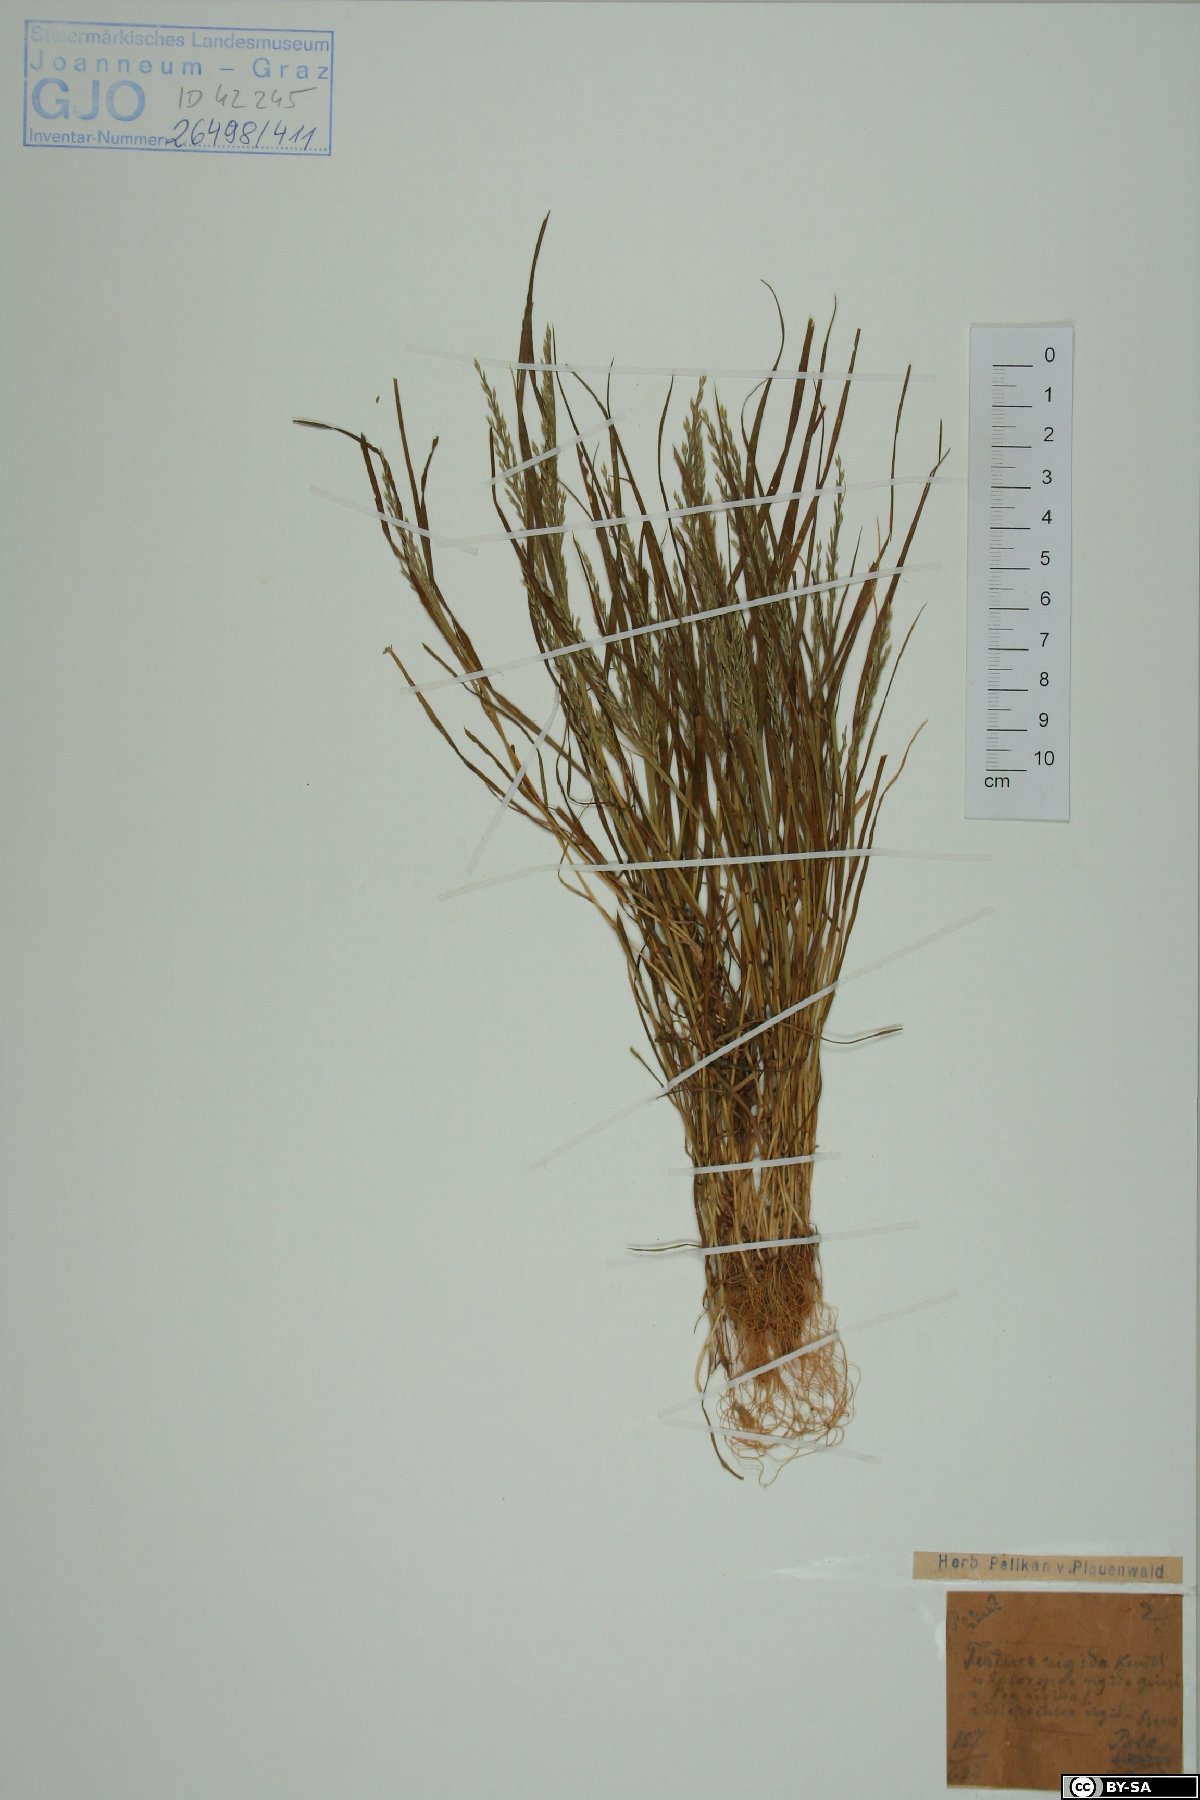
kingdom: Plantae
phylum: Tracheophyta
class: Liliopsida
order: Poales
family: Poaceae
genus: Catapodium
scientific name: Catapodium rigidum
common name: Fern-grass
